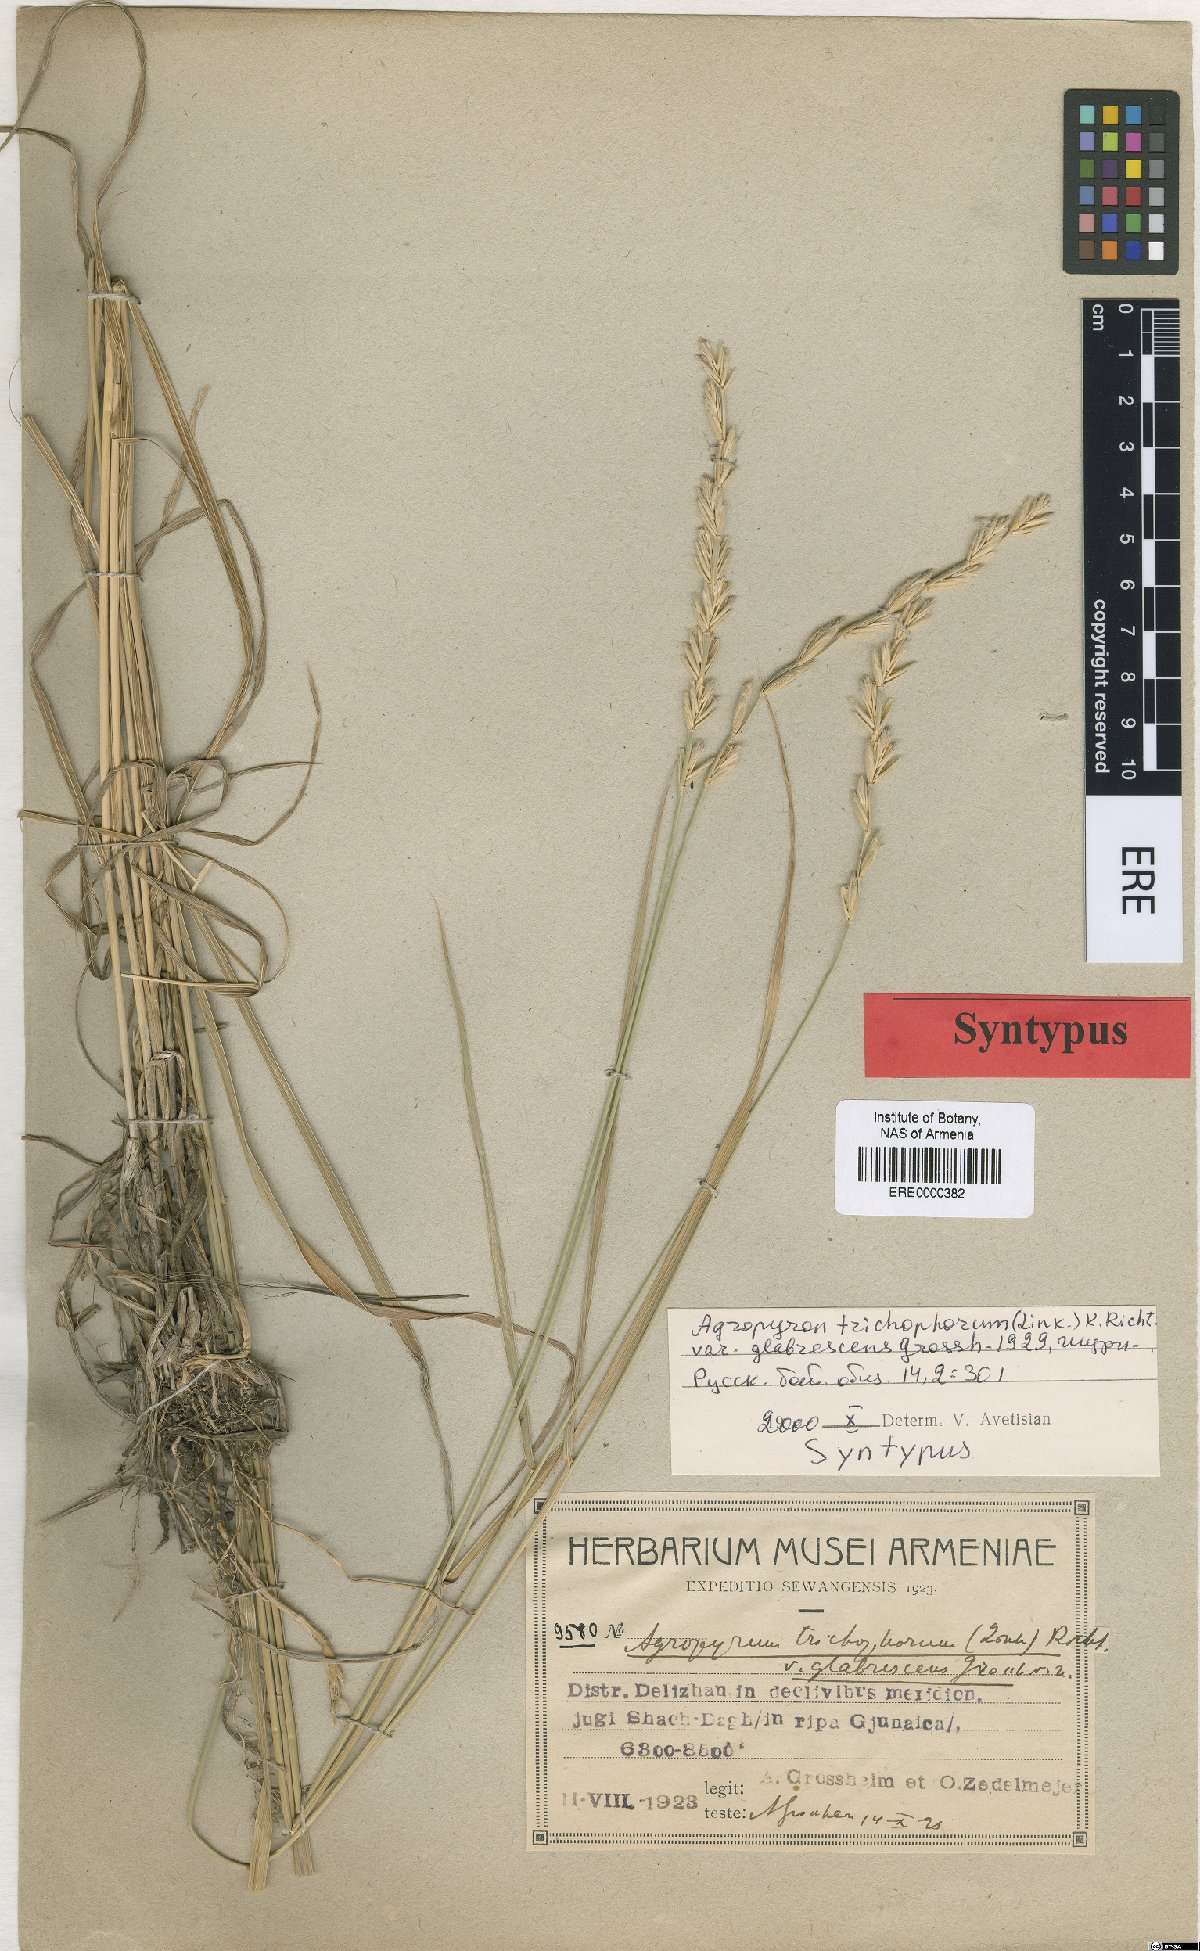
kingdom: Plantae
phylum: Tracheophyta
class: Liliopsida
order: Poales
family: Poaceae
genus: Thinopyrum
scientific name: Thinopyrum intermedium
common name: Intermediate wheatgrass
